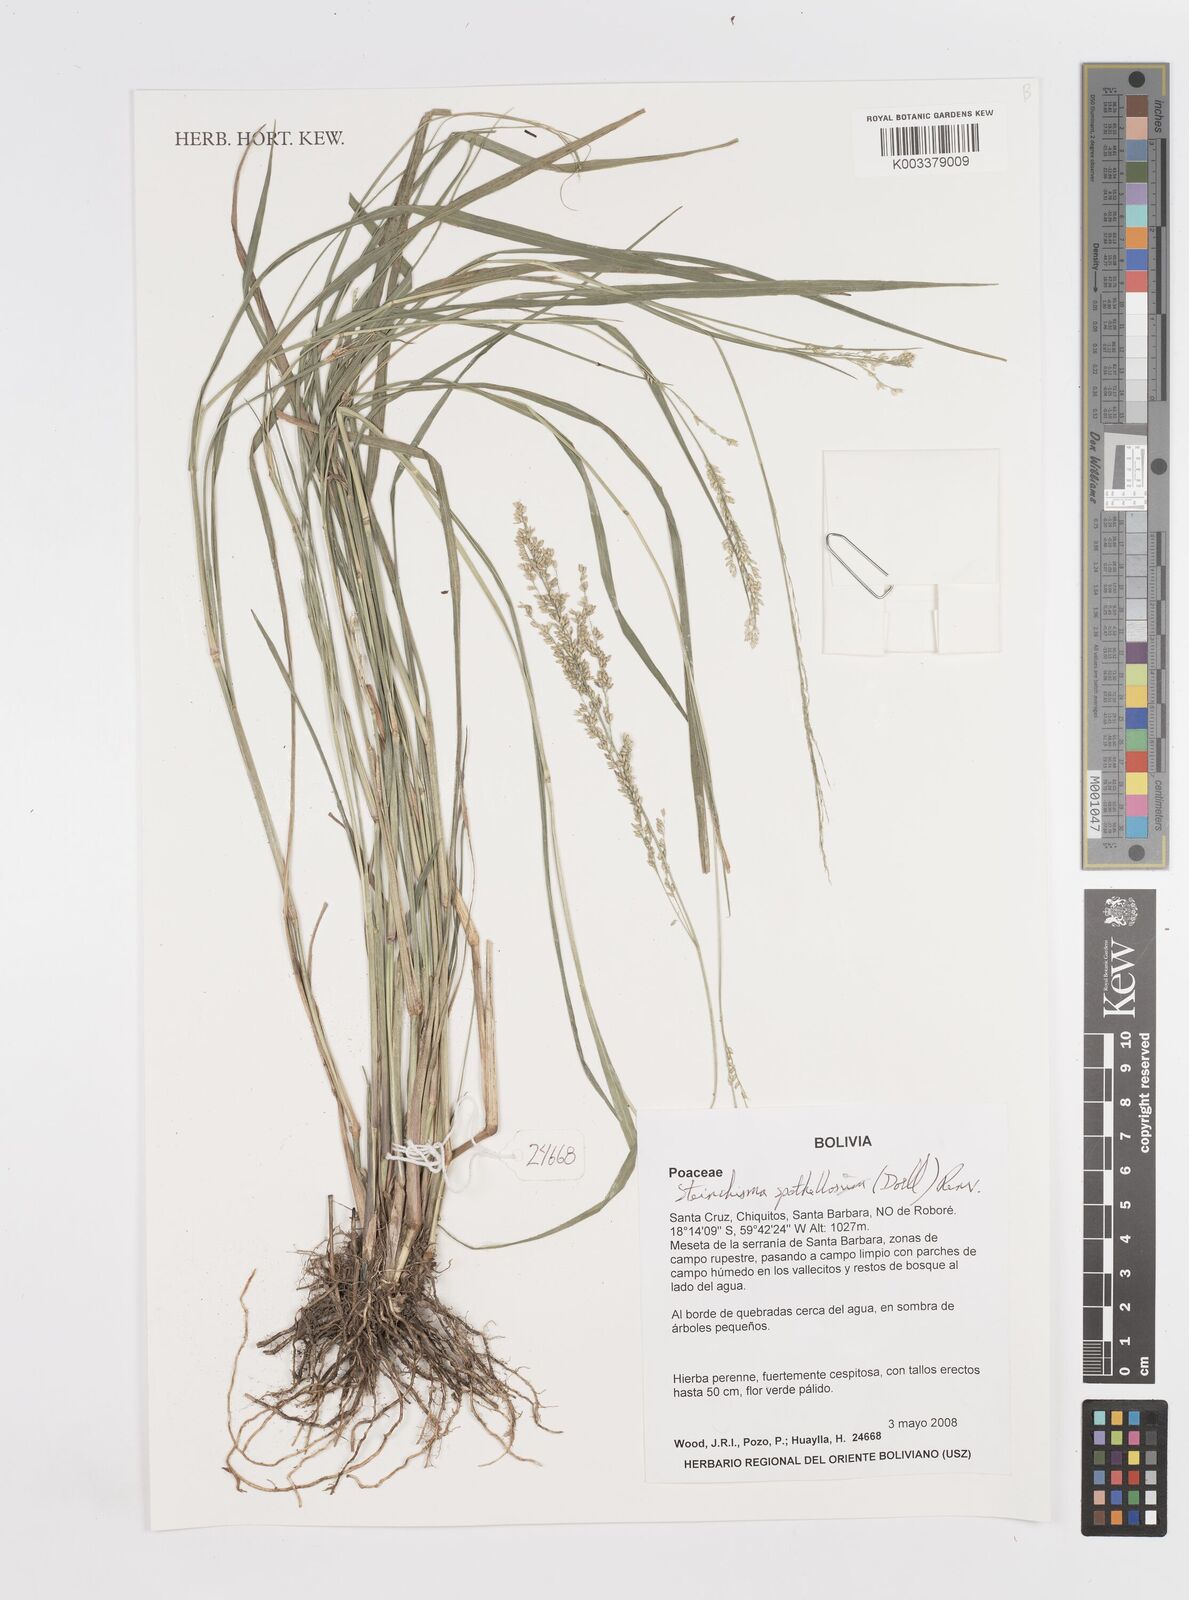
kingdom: Plantae
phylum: Tracheophyta
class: Liliopsida
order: Poales
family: Poaceae
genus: Steinchisma
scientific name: Steinchisma spathellosum
